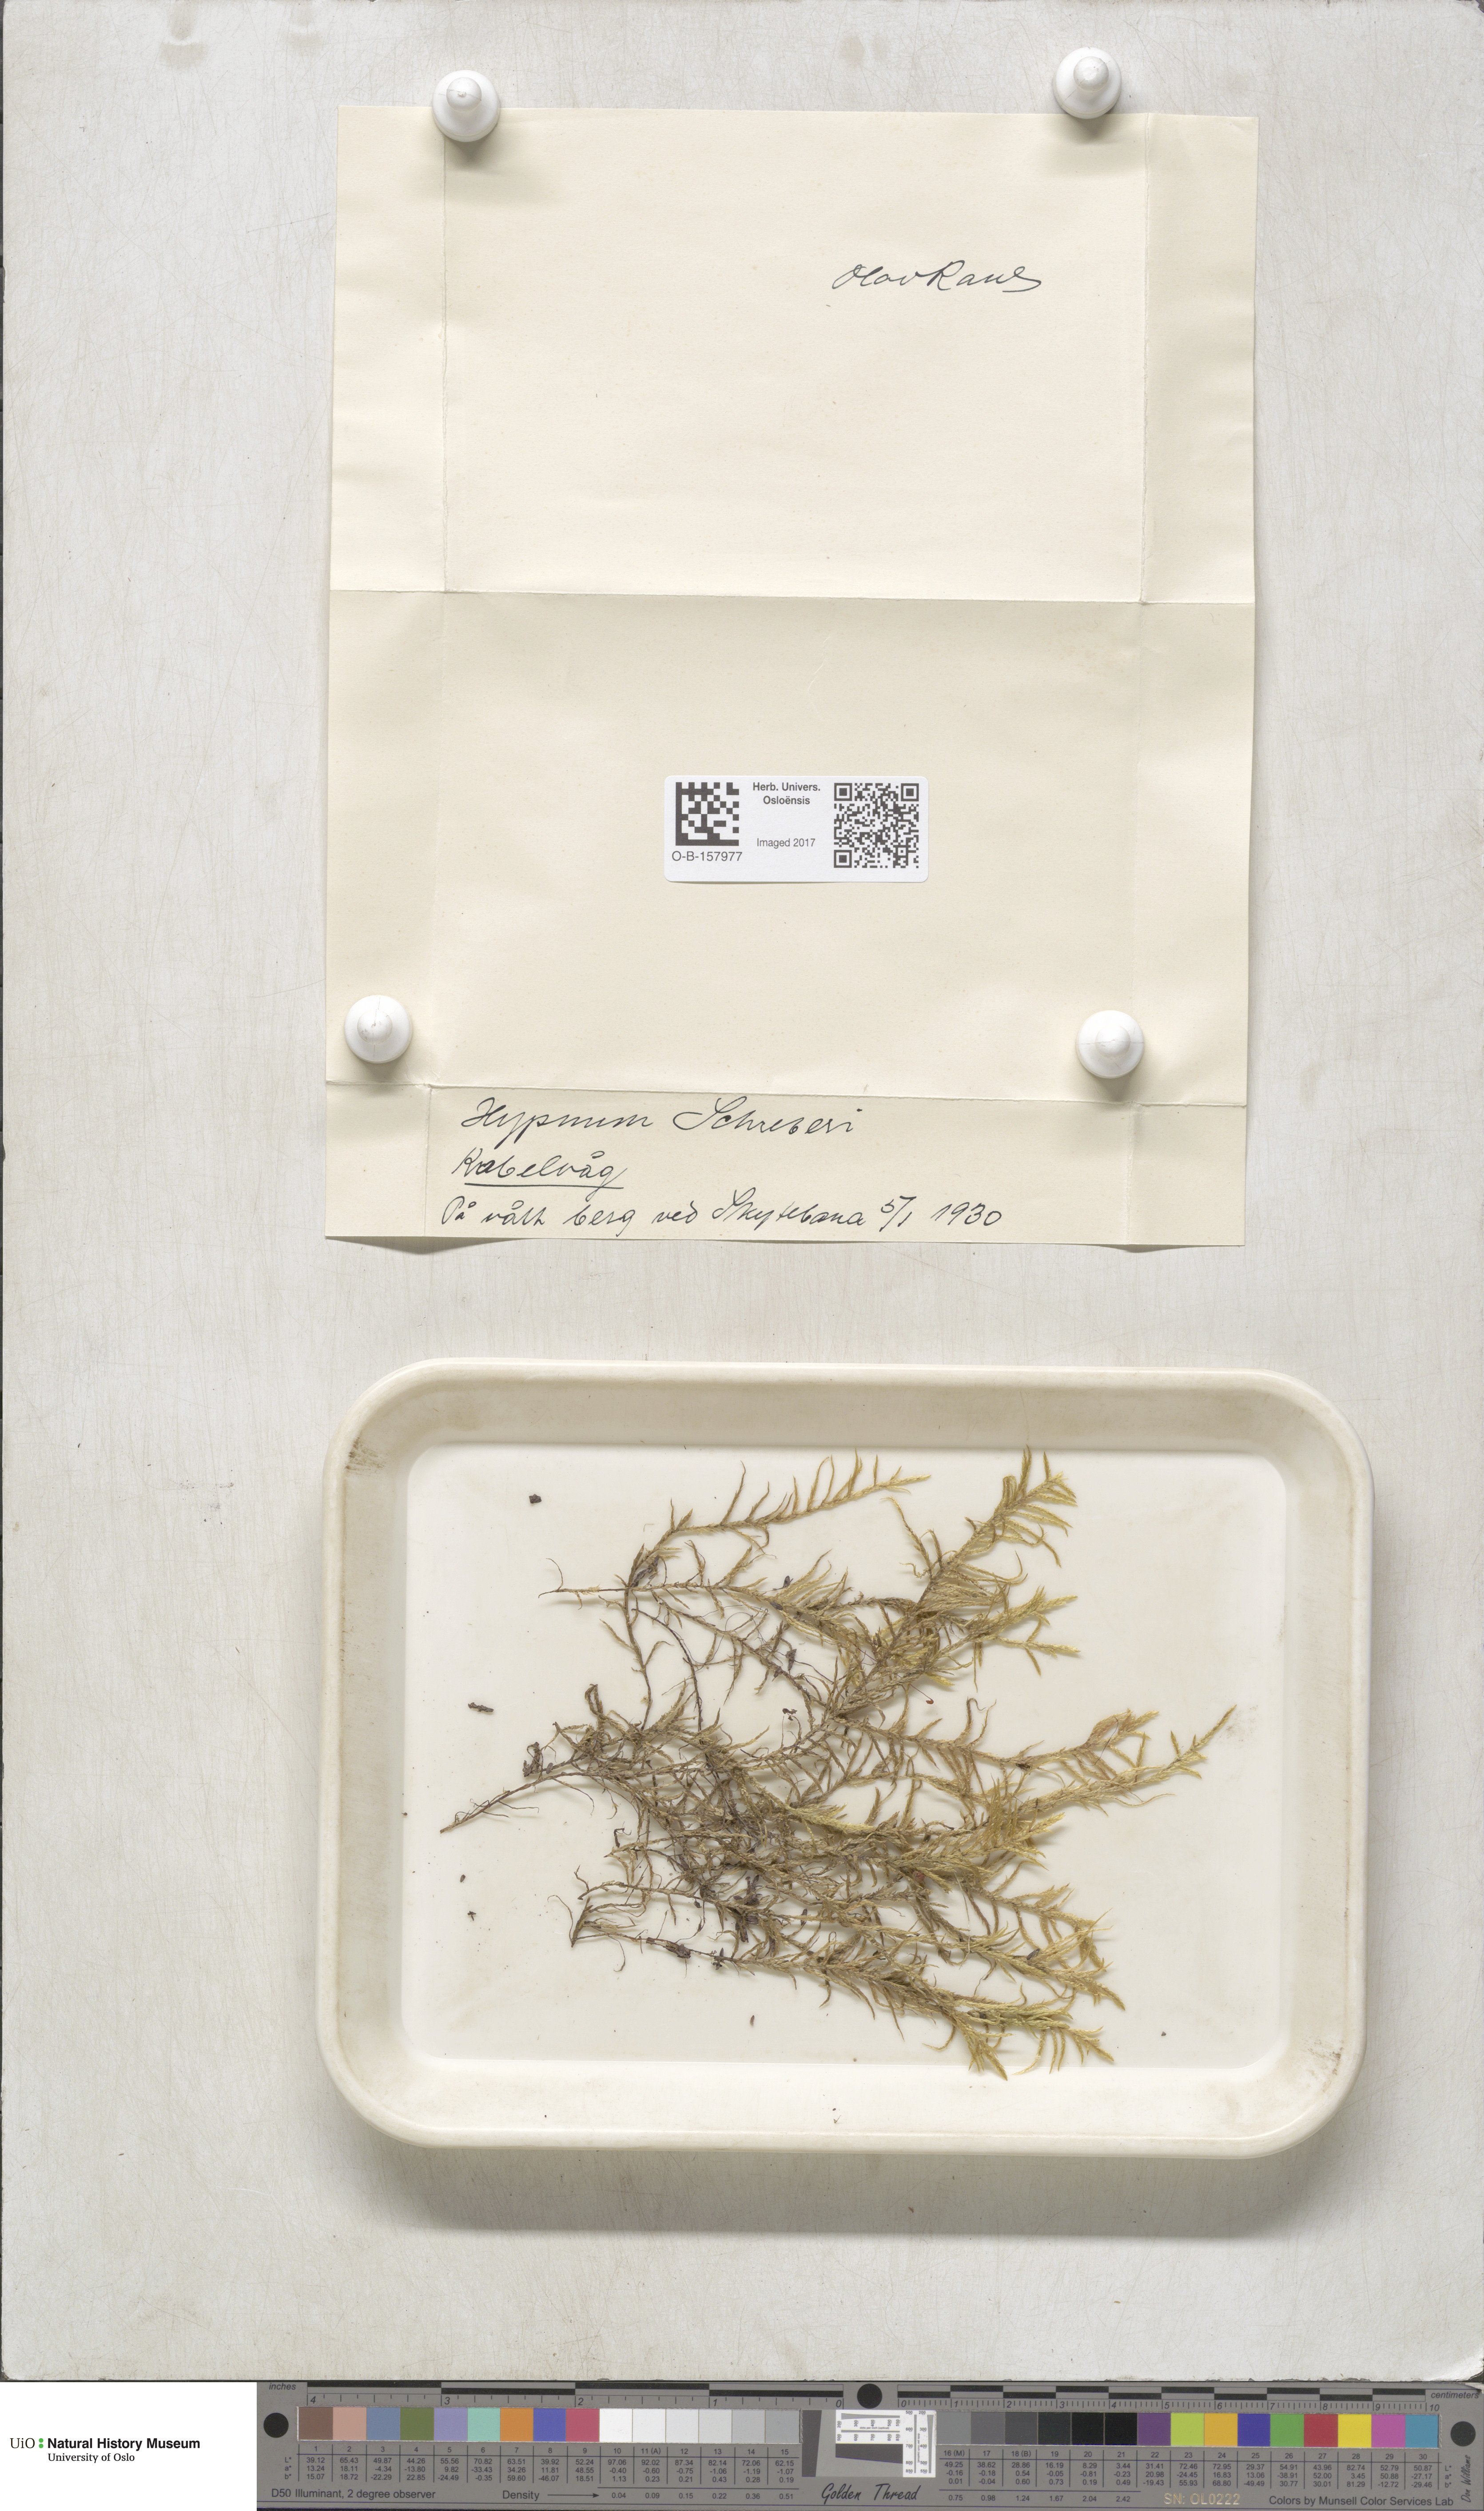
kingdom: Plantae
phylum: Bryophyta
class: Bryopsida
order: Hypnales
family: Hylocomiaceae
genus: Pleurozium
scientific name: Pleurozium schreberi
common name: Red-stemmed feather moss
